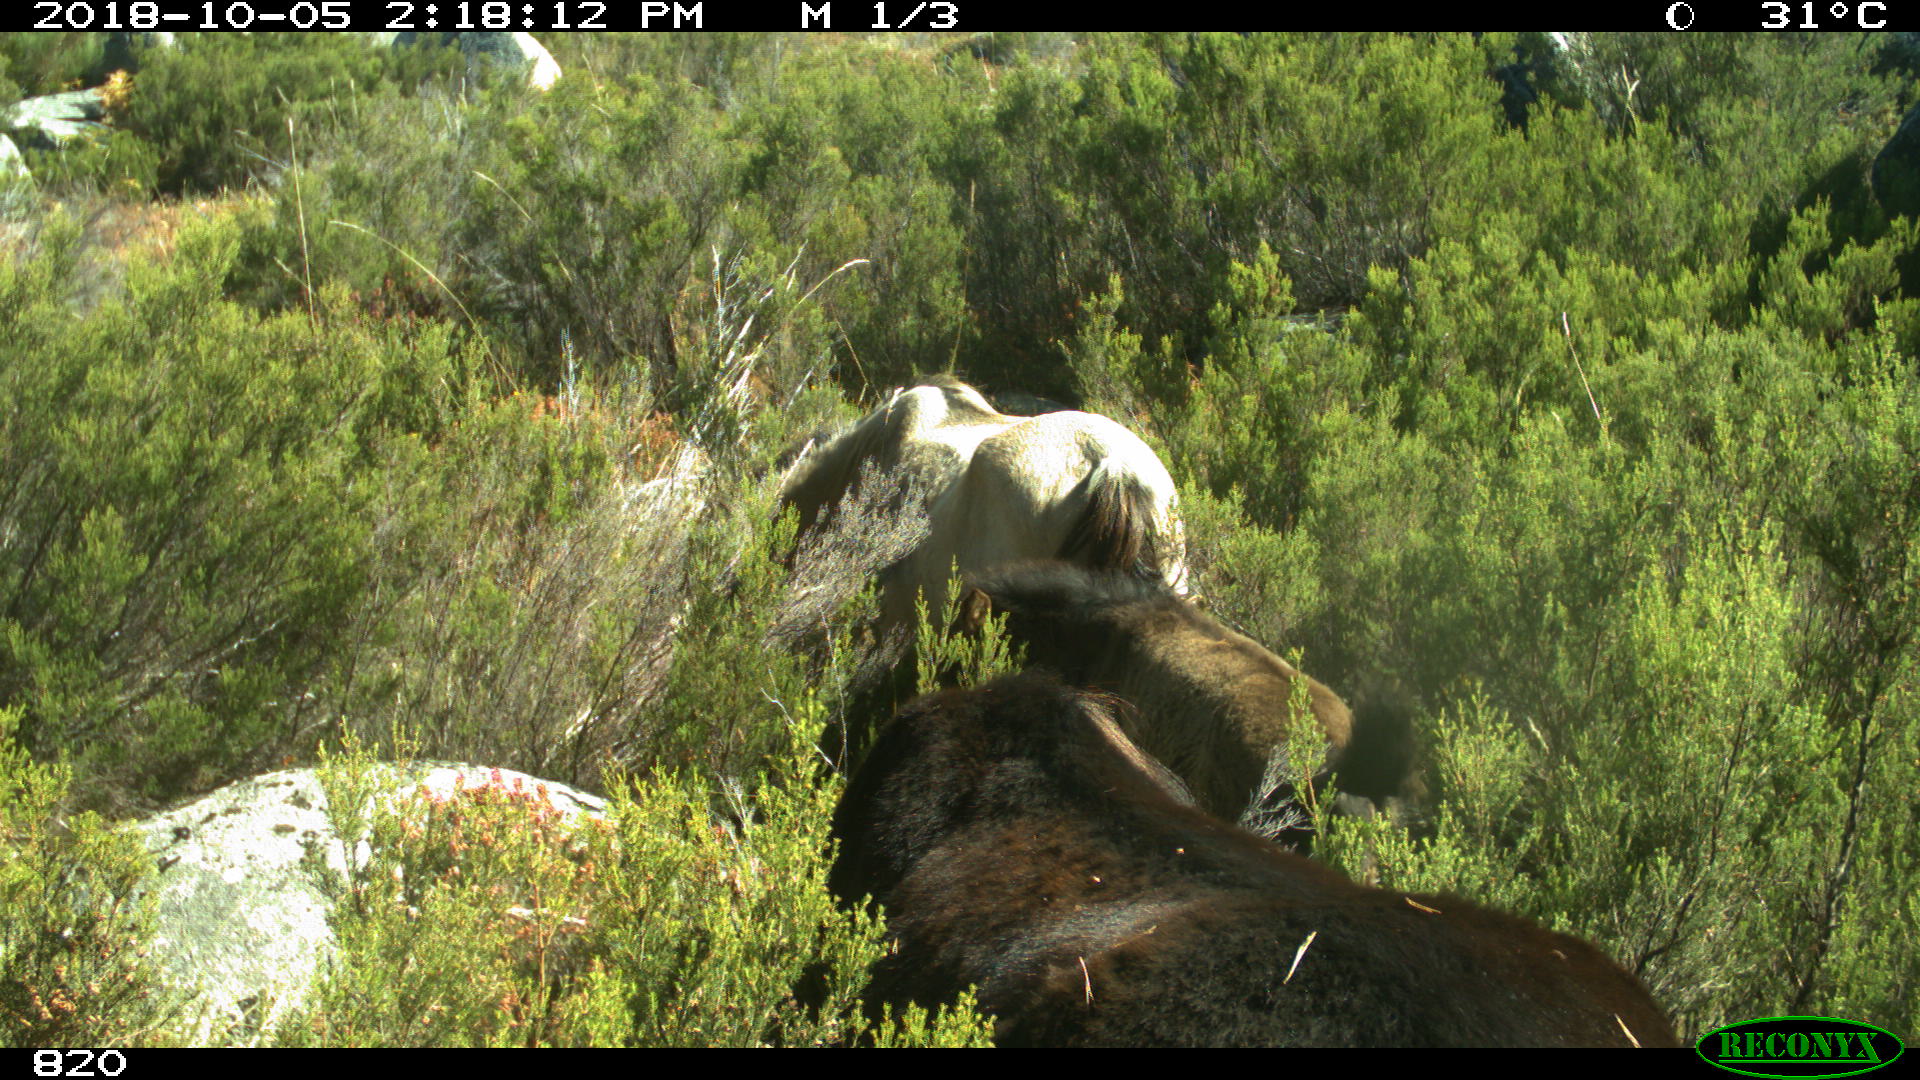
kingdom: Animalia
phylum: Chordata
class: Mammalia
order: Perissodactyla
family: Equidae
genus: Equus
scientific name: Equus caballus
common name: Horse
